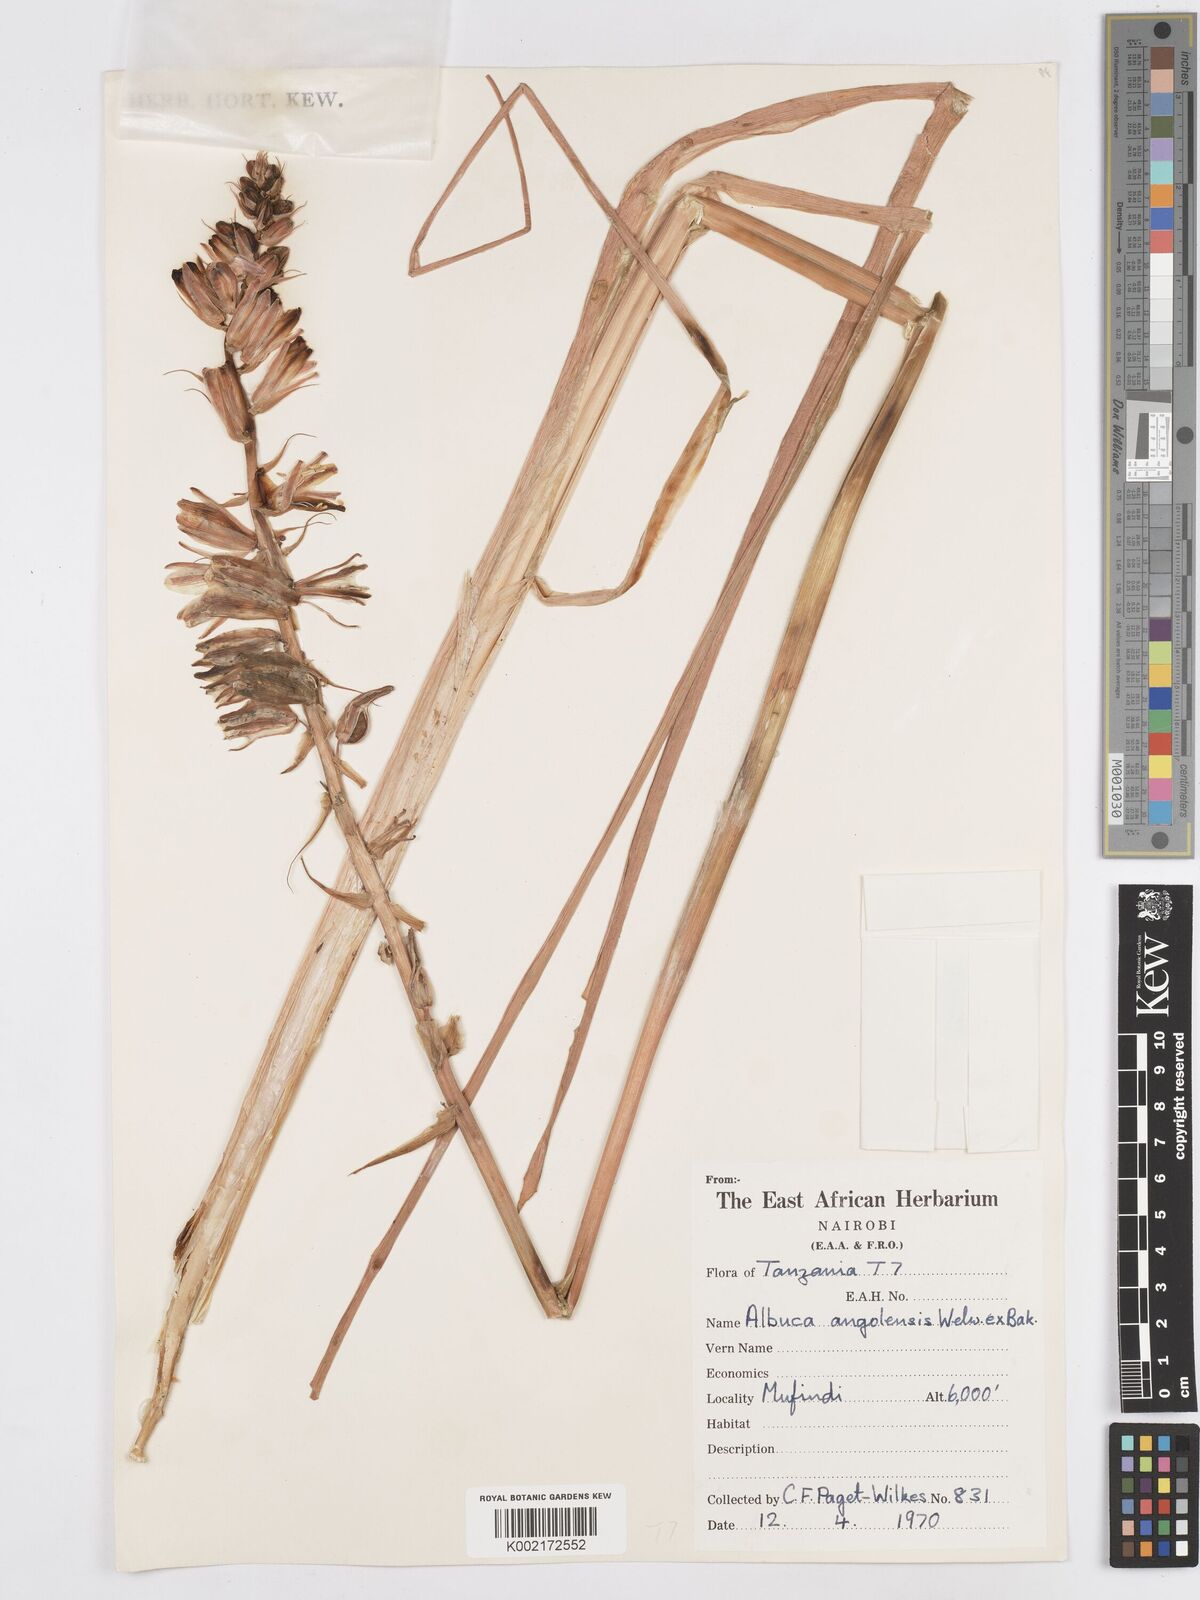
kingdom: Plantae
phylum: Tracheophyta
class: Liliopsida
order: Asparagales
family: Asparagaceae
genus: Albuca
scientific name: Albuca abyssinica
